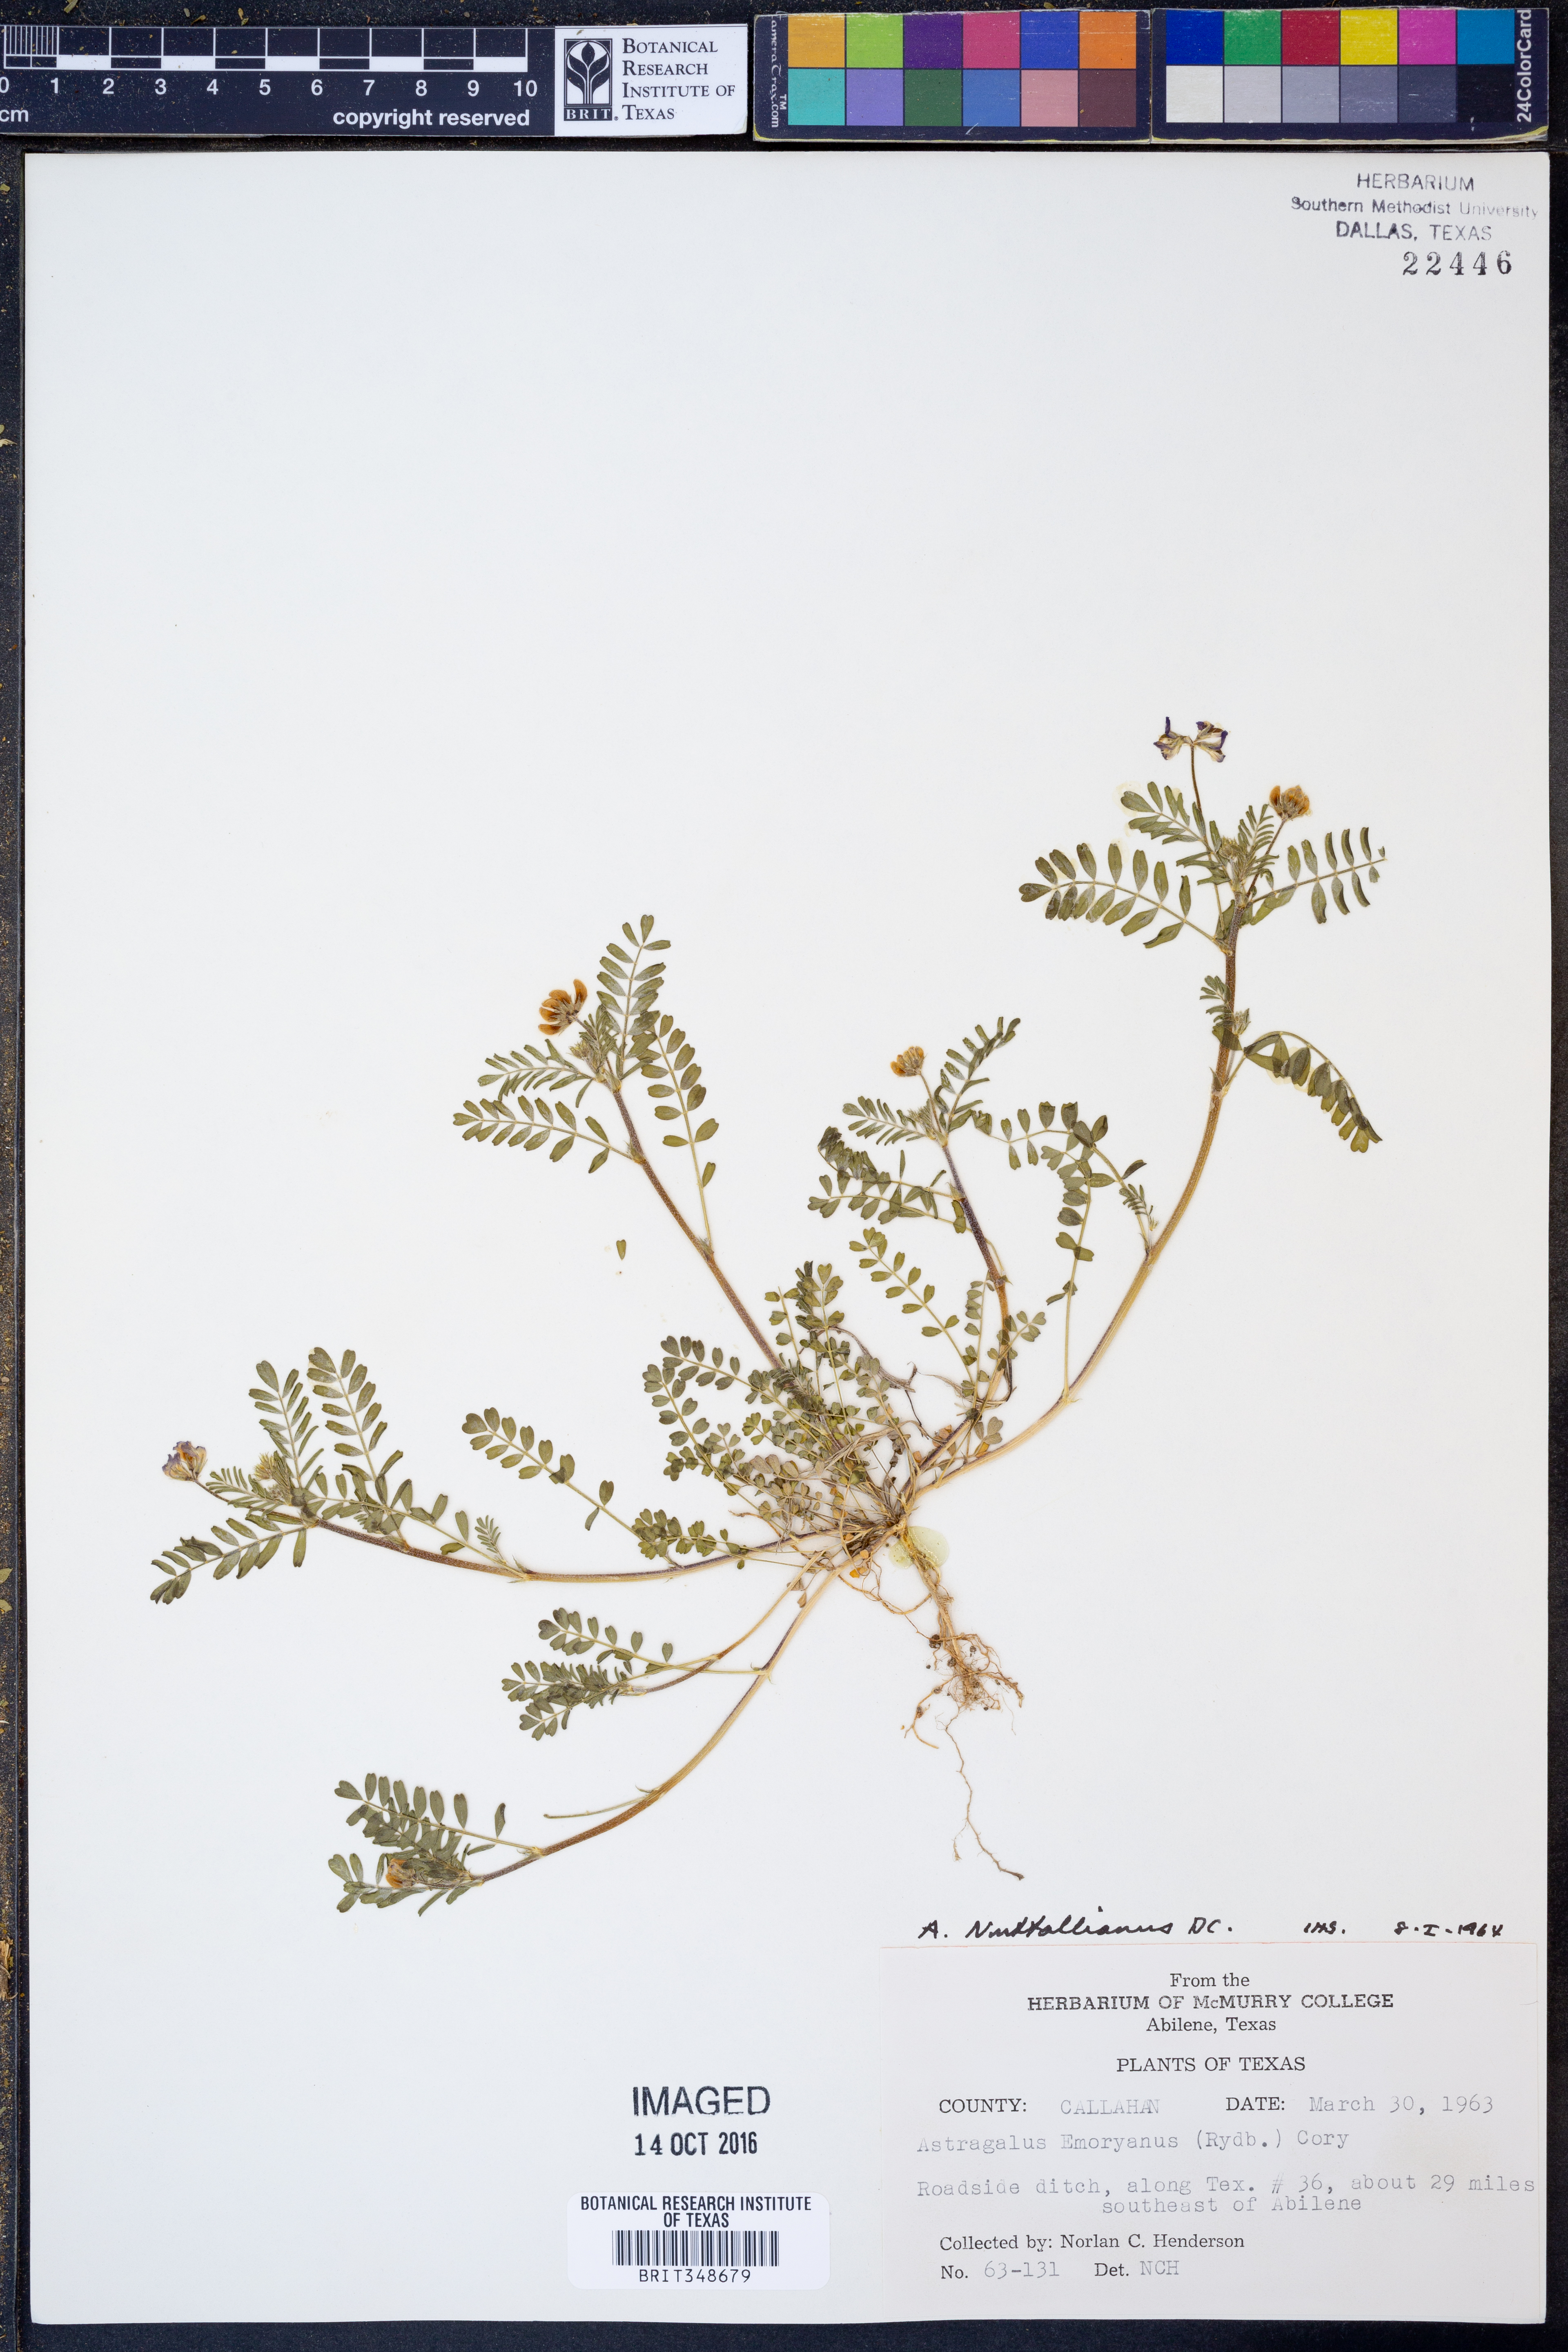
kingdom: Plantae
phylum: Tracheophyta
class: Magnoliopsida
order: Fabales
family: Fabaceae
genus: Astragalus
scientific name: Astragalus nuttallianus
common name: Smallflowered milkvetch
